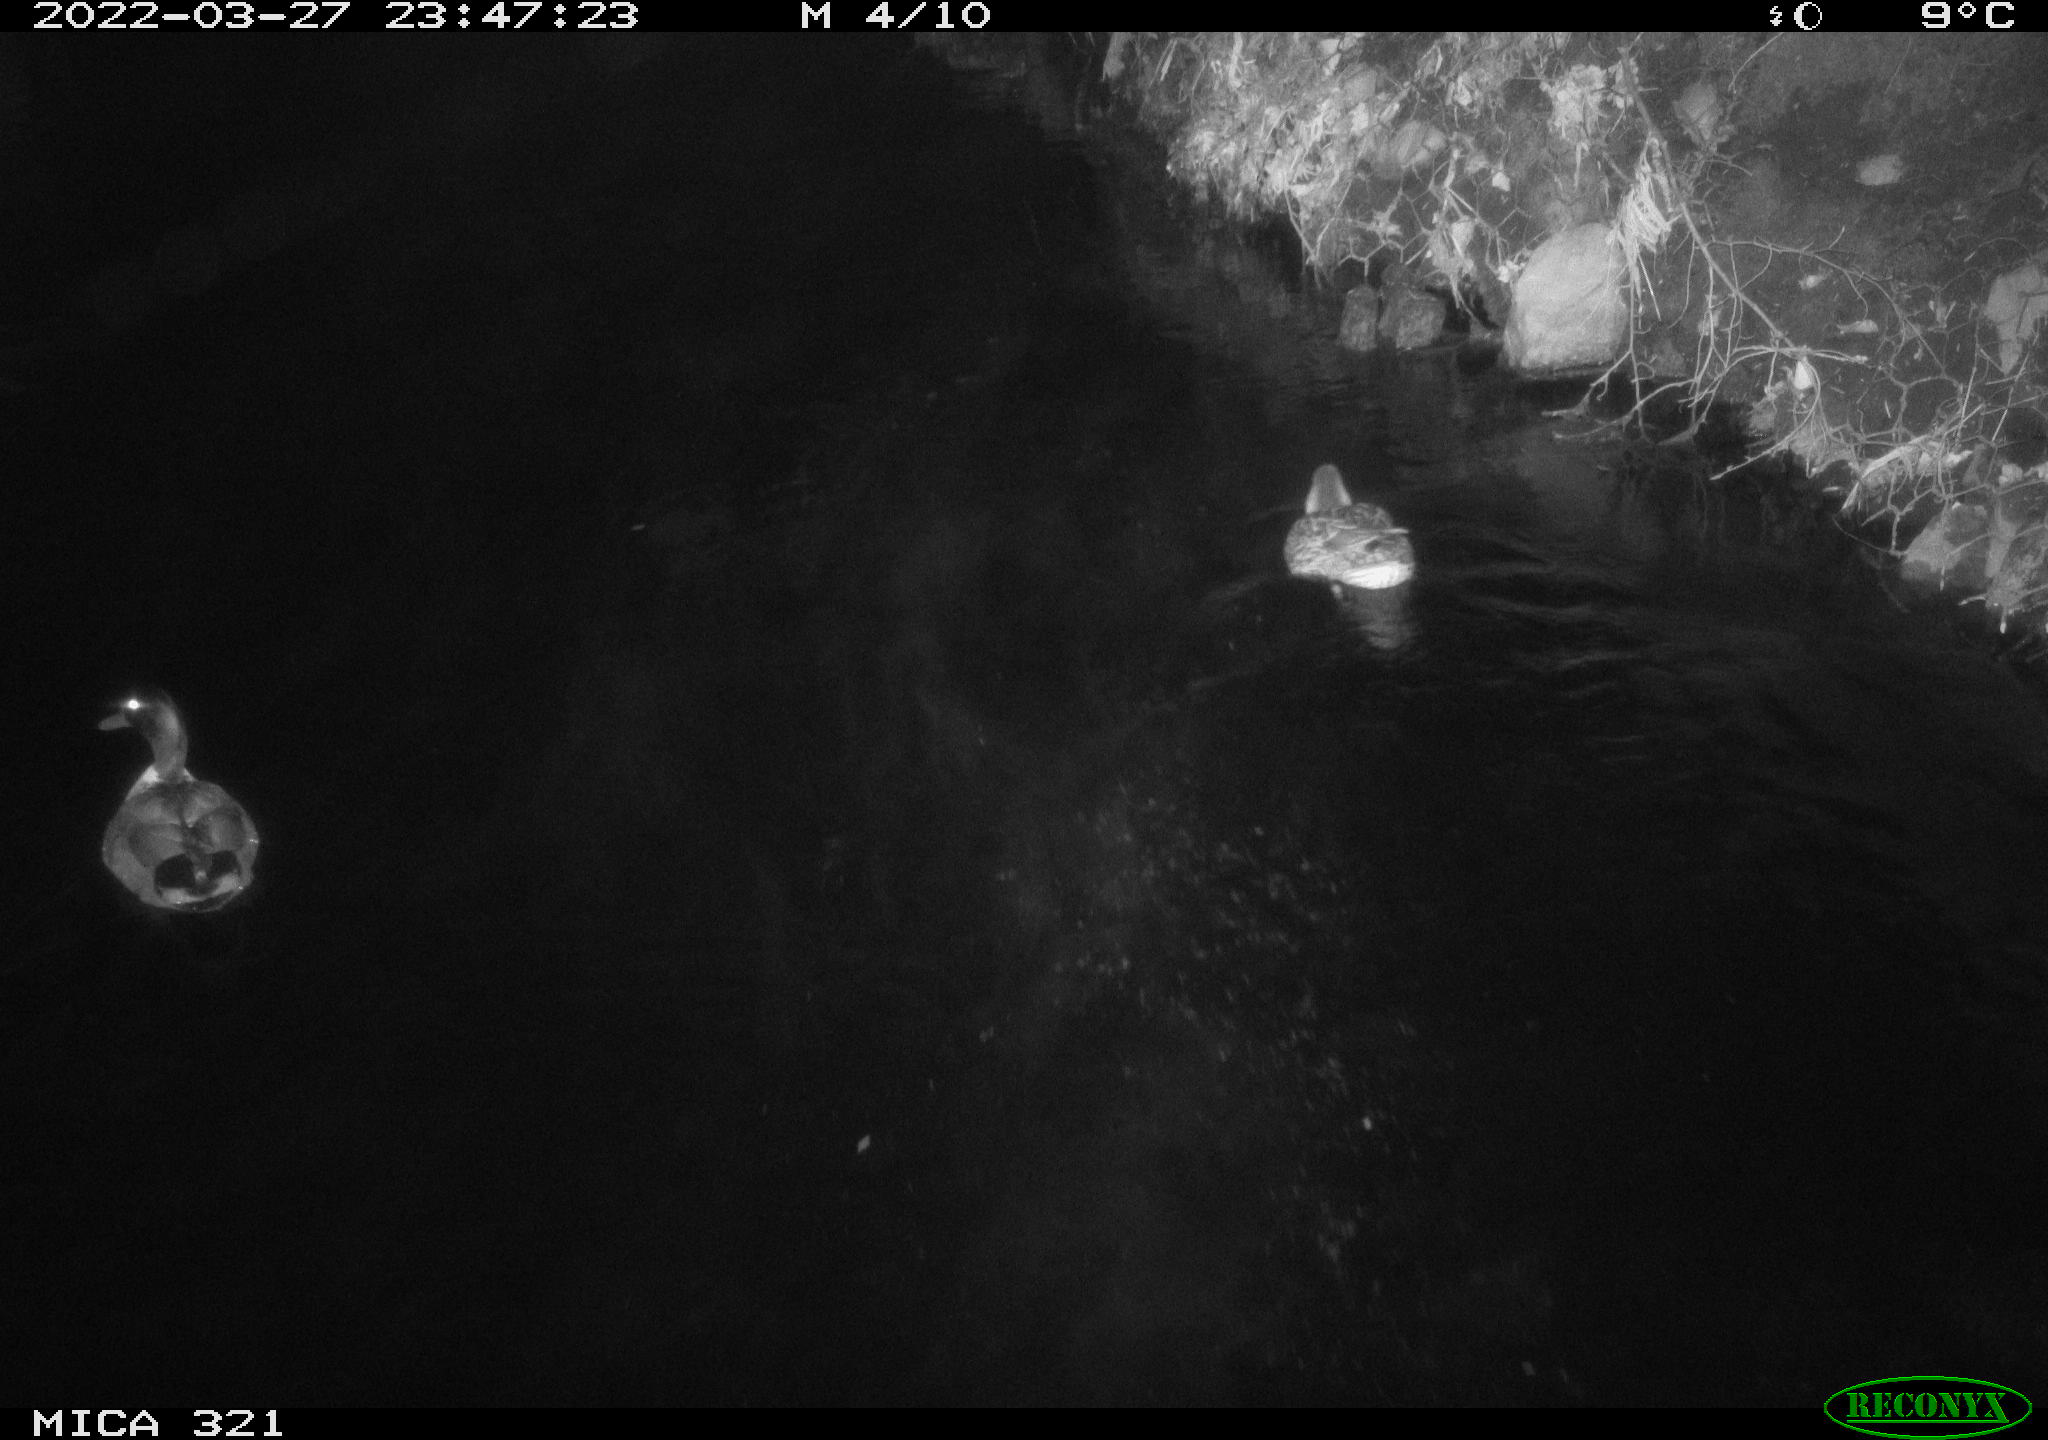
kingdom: Animalia
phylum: Chordata
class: Aves
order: Anseriformes
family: Anatidae
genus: Anas
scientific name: Anas platyrhynchos
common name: Mallard
